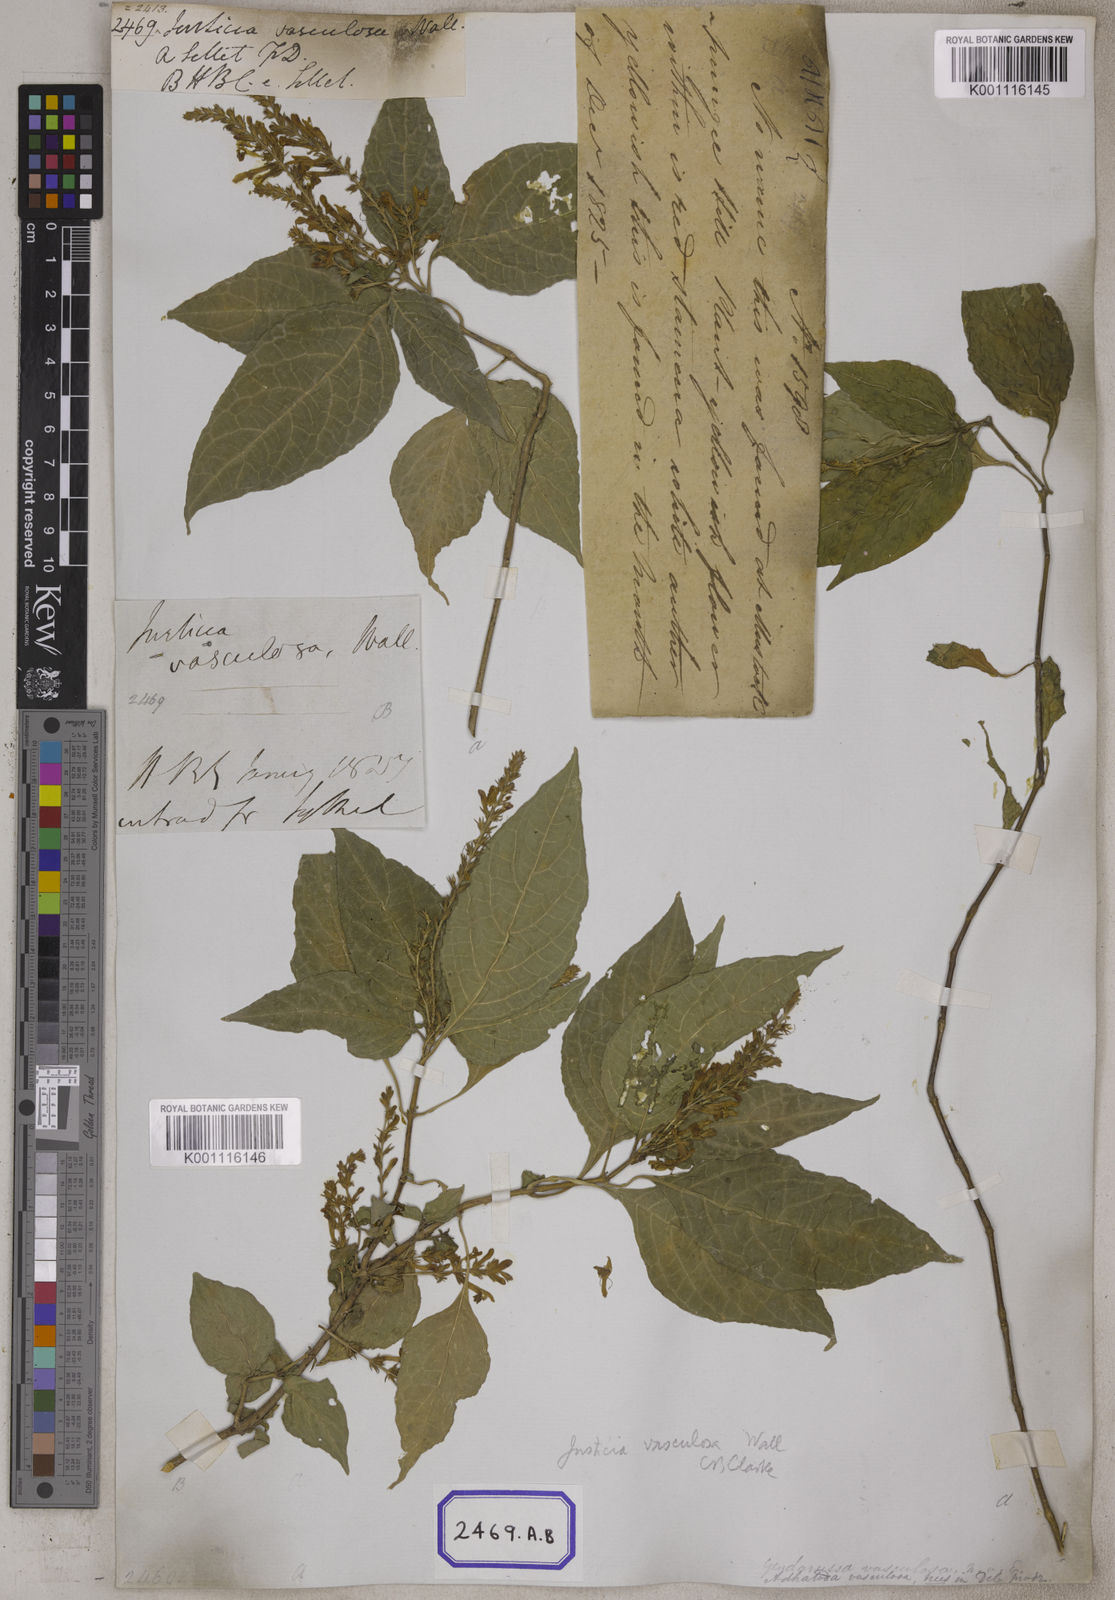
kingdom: Plantae
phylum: Tracheophyta
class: Magnoliopsida
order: Lamiales
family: Acanthaceae
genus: Justicia
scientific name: Justicia
